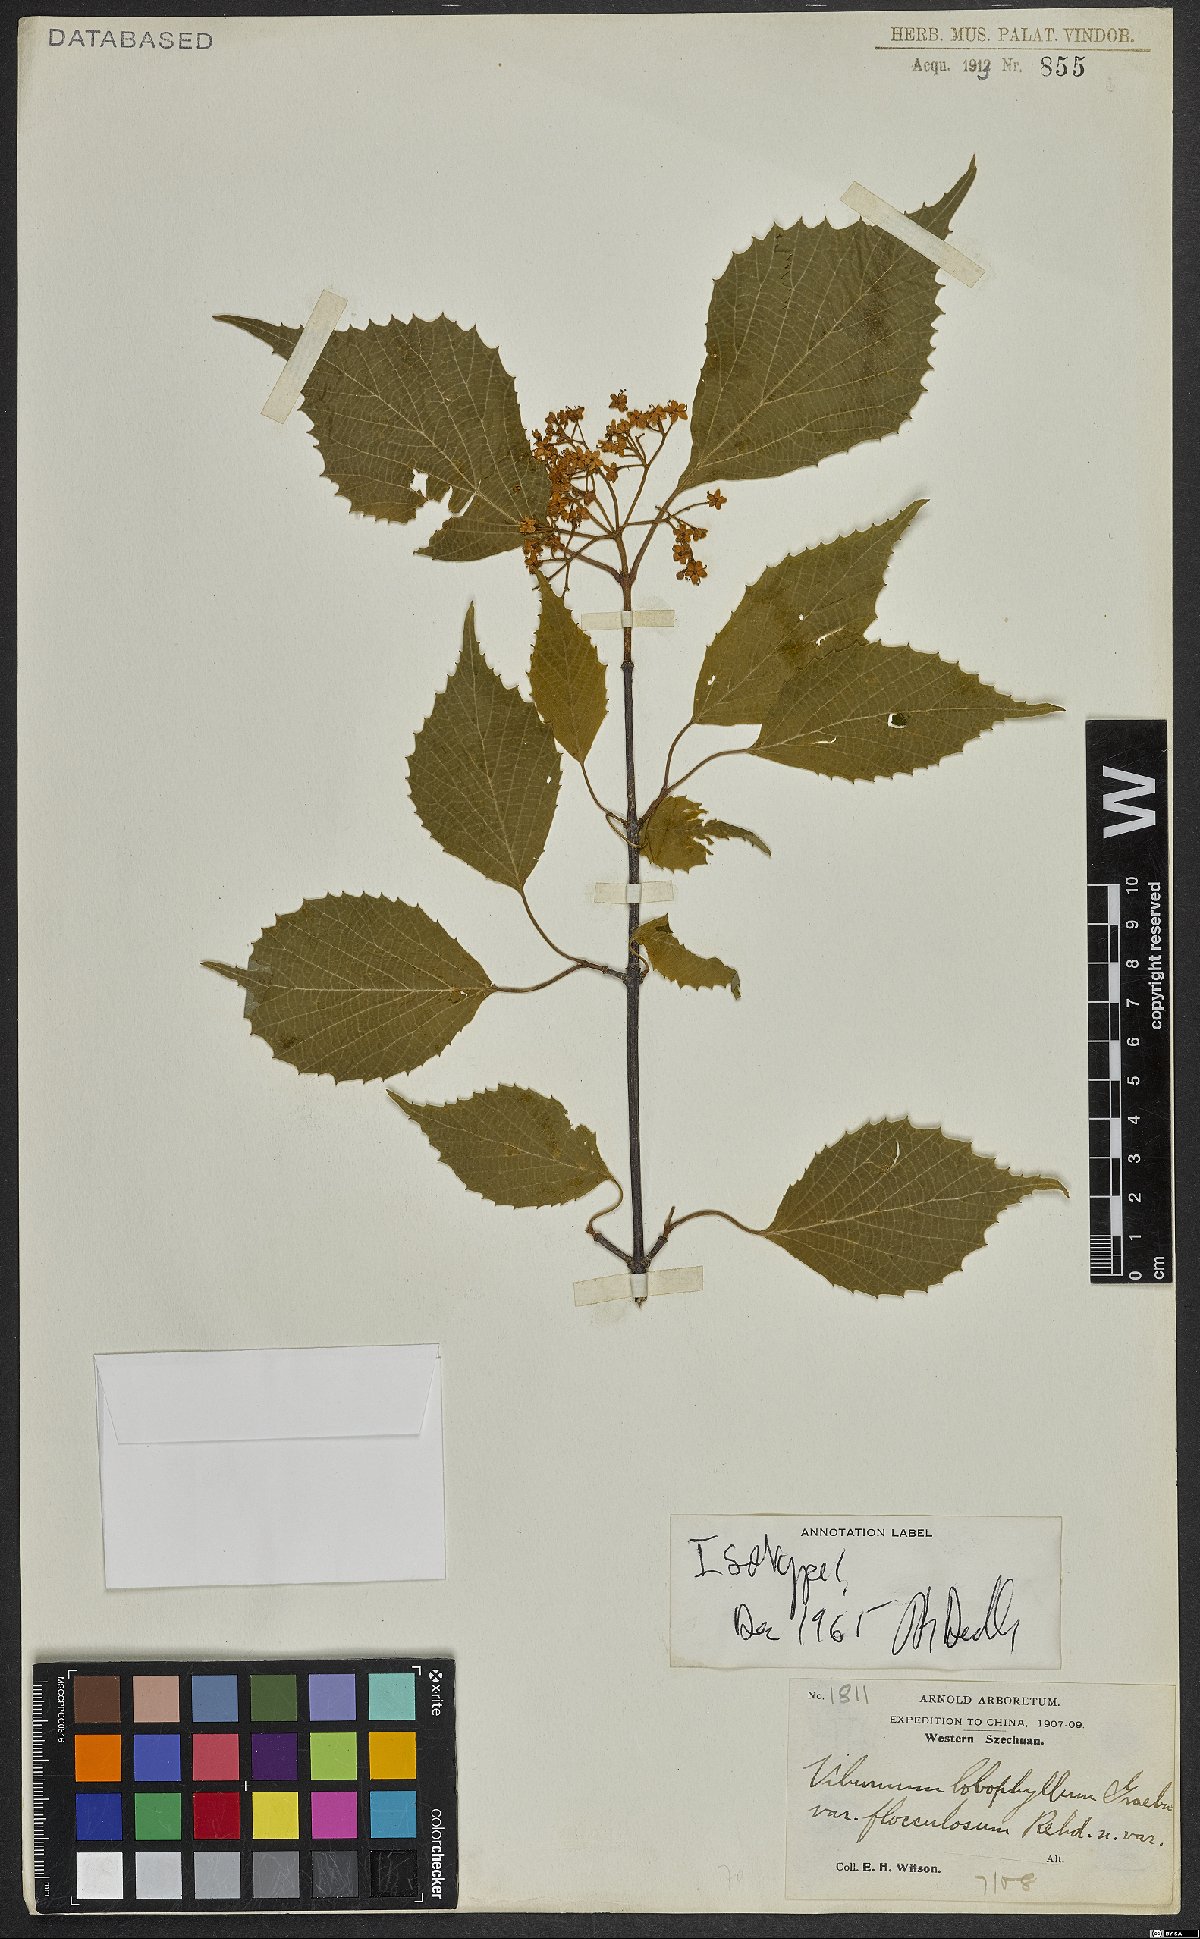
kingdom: Plantae
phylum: Tracheophyta
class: Magnoliopsida
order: Dipsacales
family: Viburnaceae
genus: Viburnum
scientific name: Viburnum betulifolium
